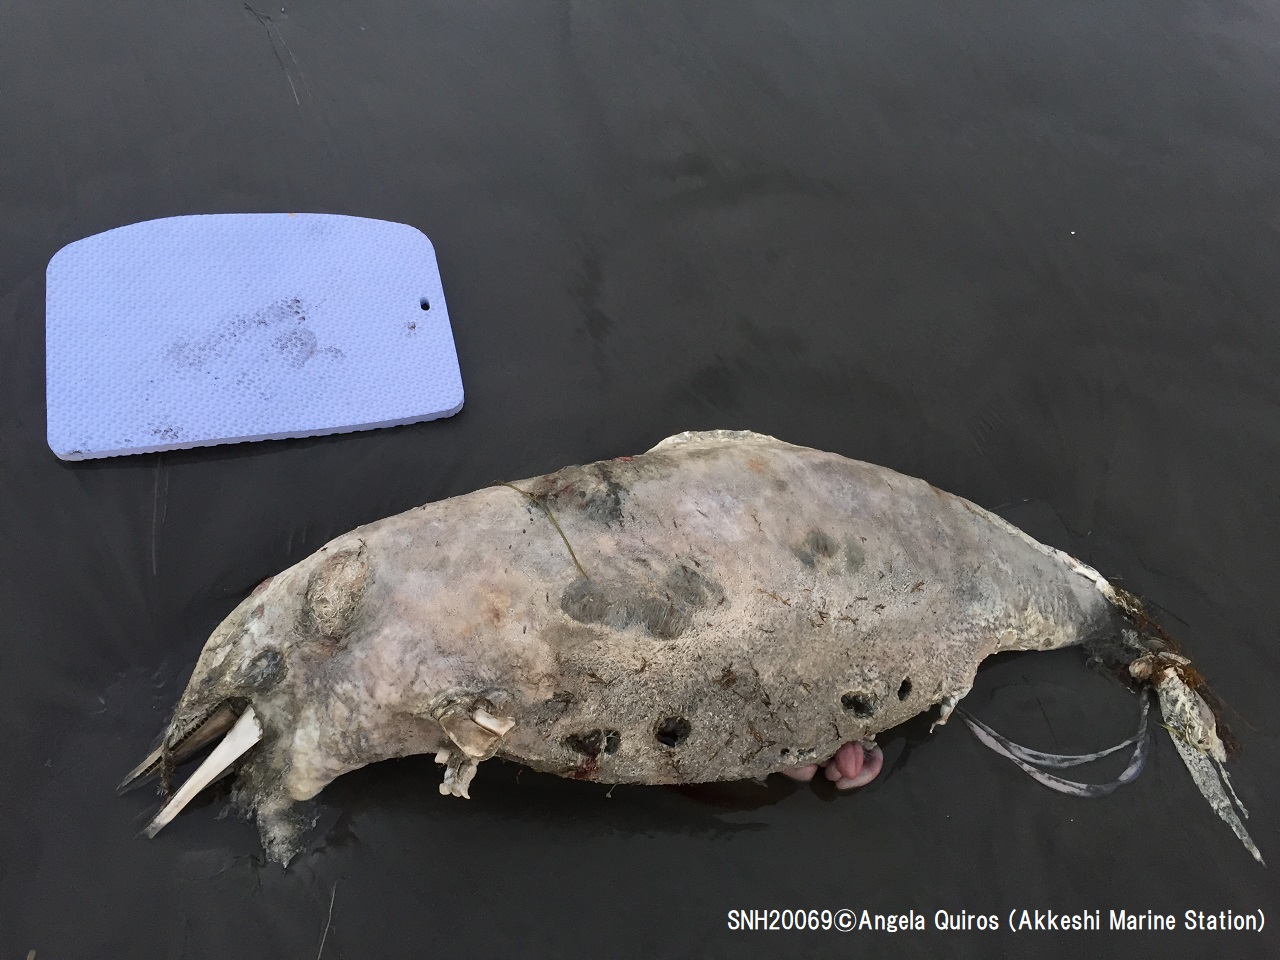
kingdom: Animalia
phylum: Chordata
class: Mammalia
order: Cetacea
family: Delphinidae
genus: Lagenorhynchus
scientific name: Lagenorhynchus obliquidens
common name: Pacific white-sided dolphin
